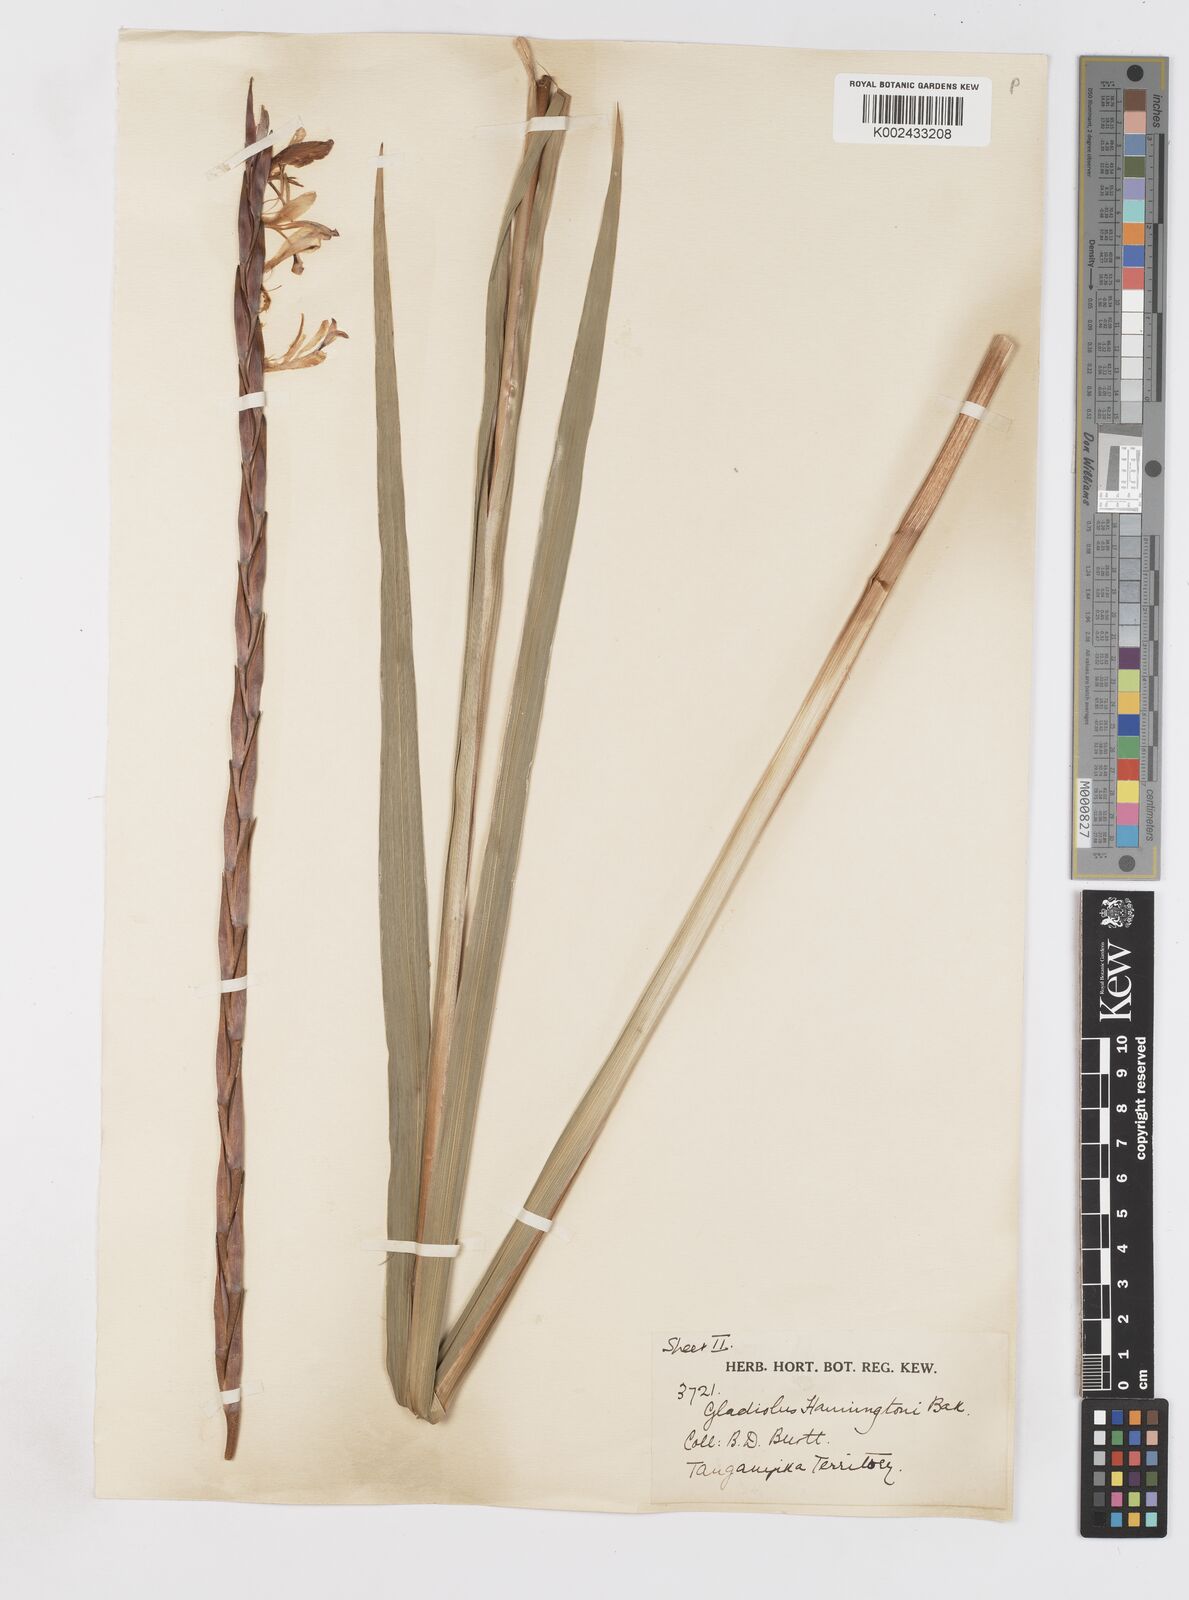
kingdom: Plantae
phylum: Tracheophyta
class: Liliopsida
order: Asparagales
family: Iridaceae
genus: Gladiolus
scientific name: Gladiolus gregarius
